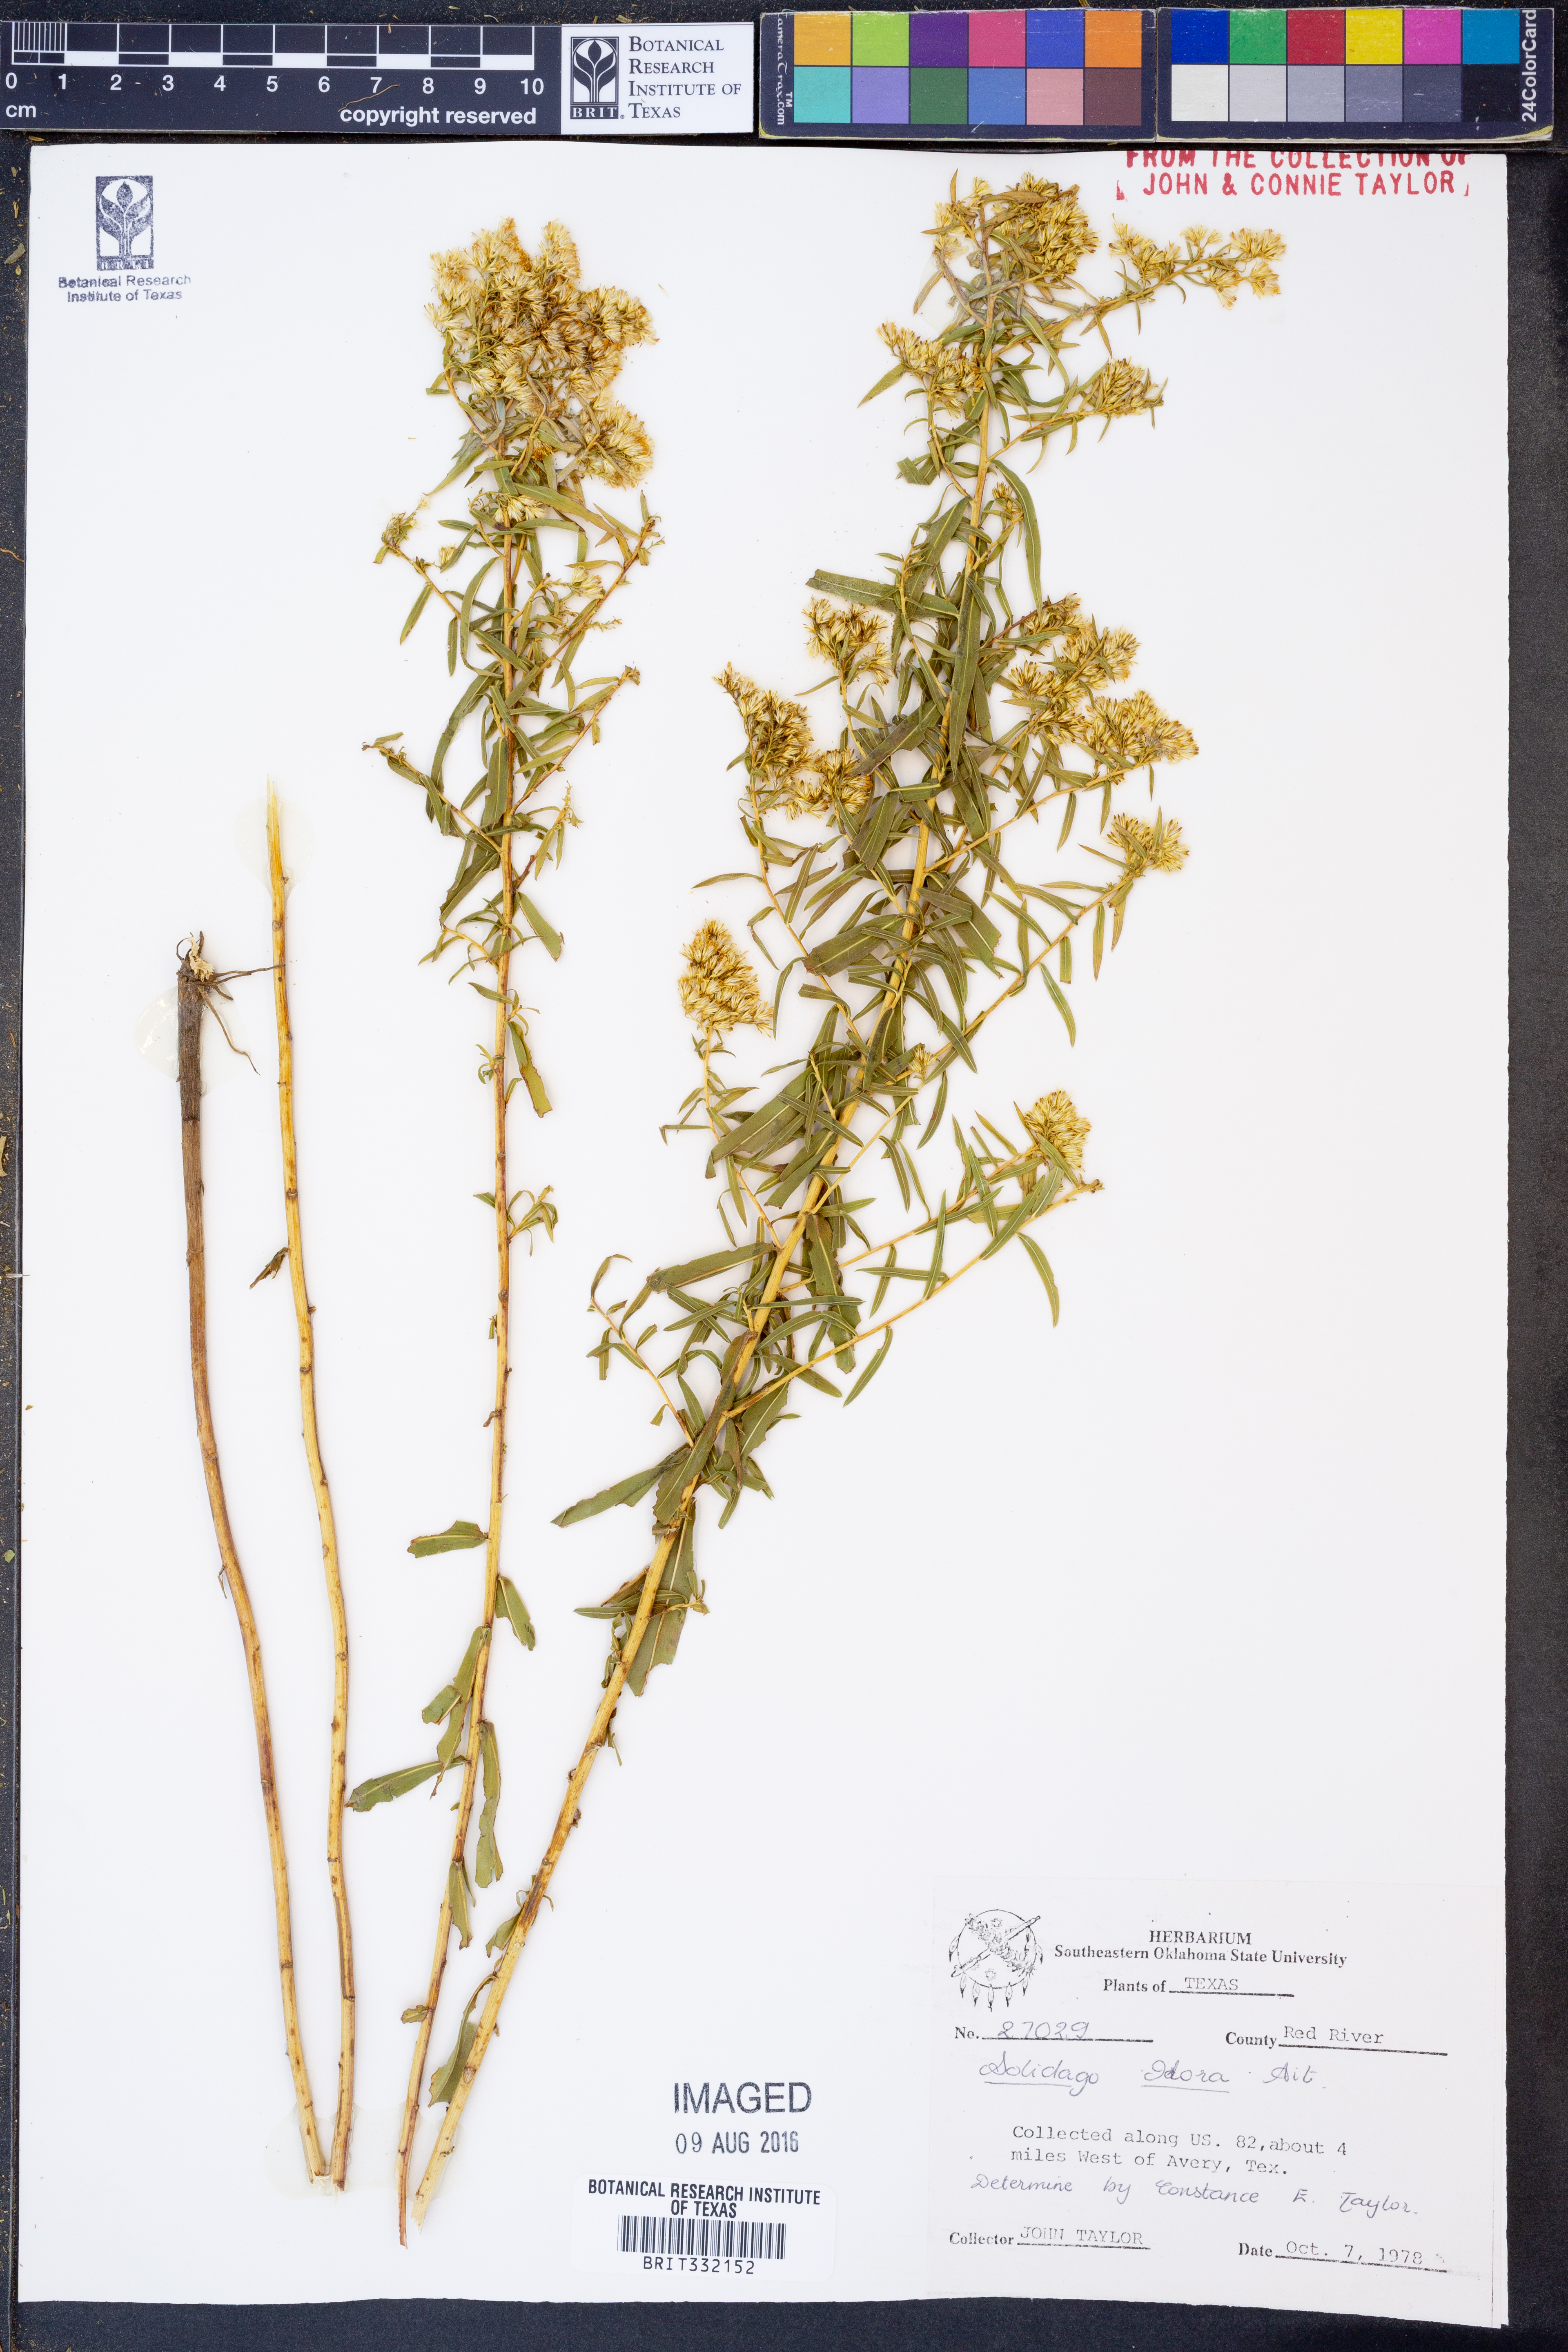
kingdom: Plantae
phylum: Tracheophyta
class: Magnoliopsida
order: Asterales
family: Asteraceae
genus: Solidago
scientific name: Solidago odora
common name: Anise-scented goldenrod
